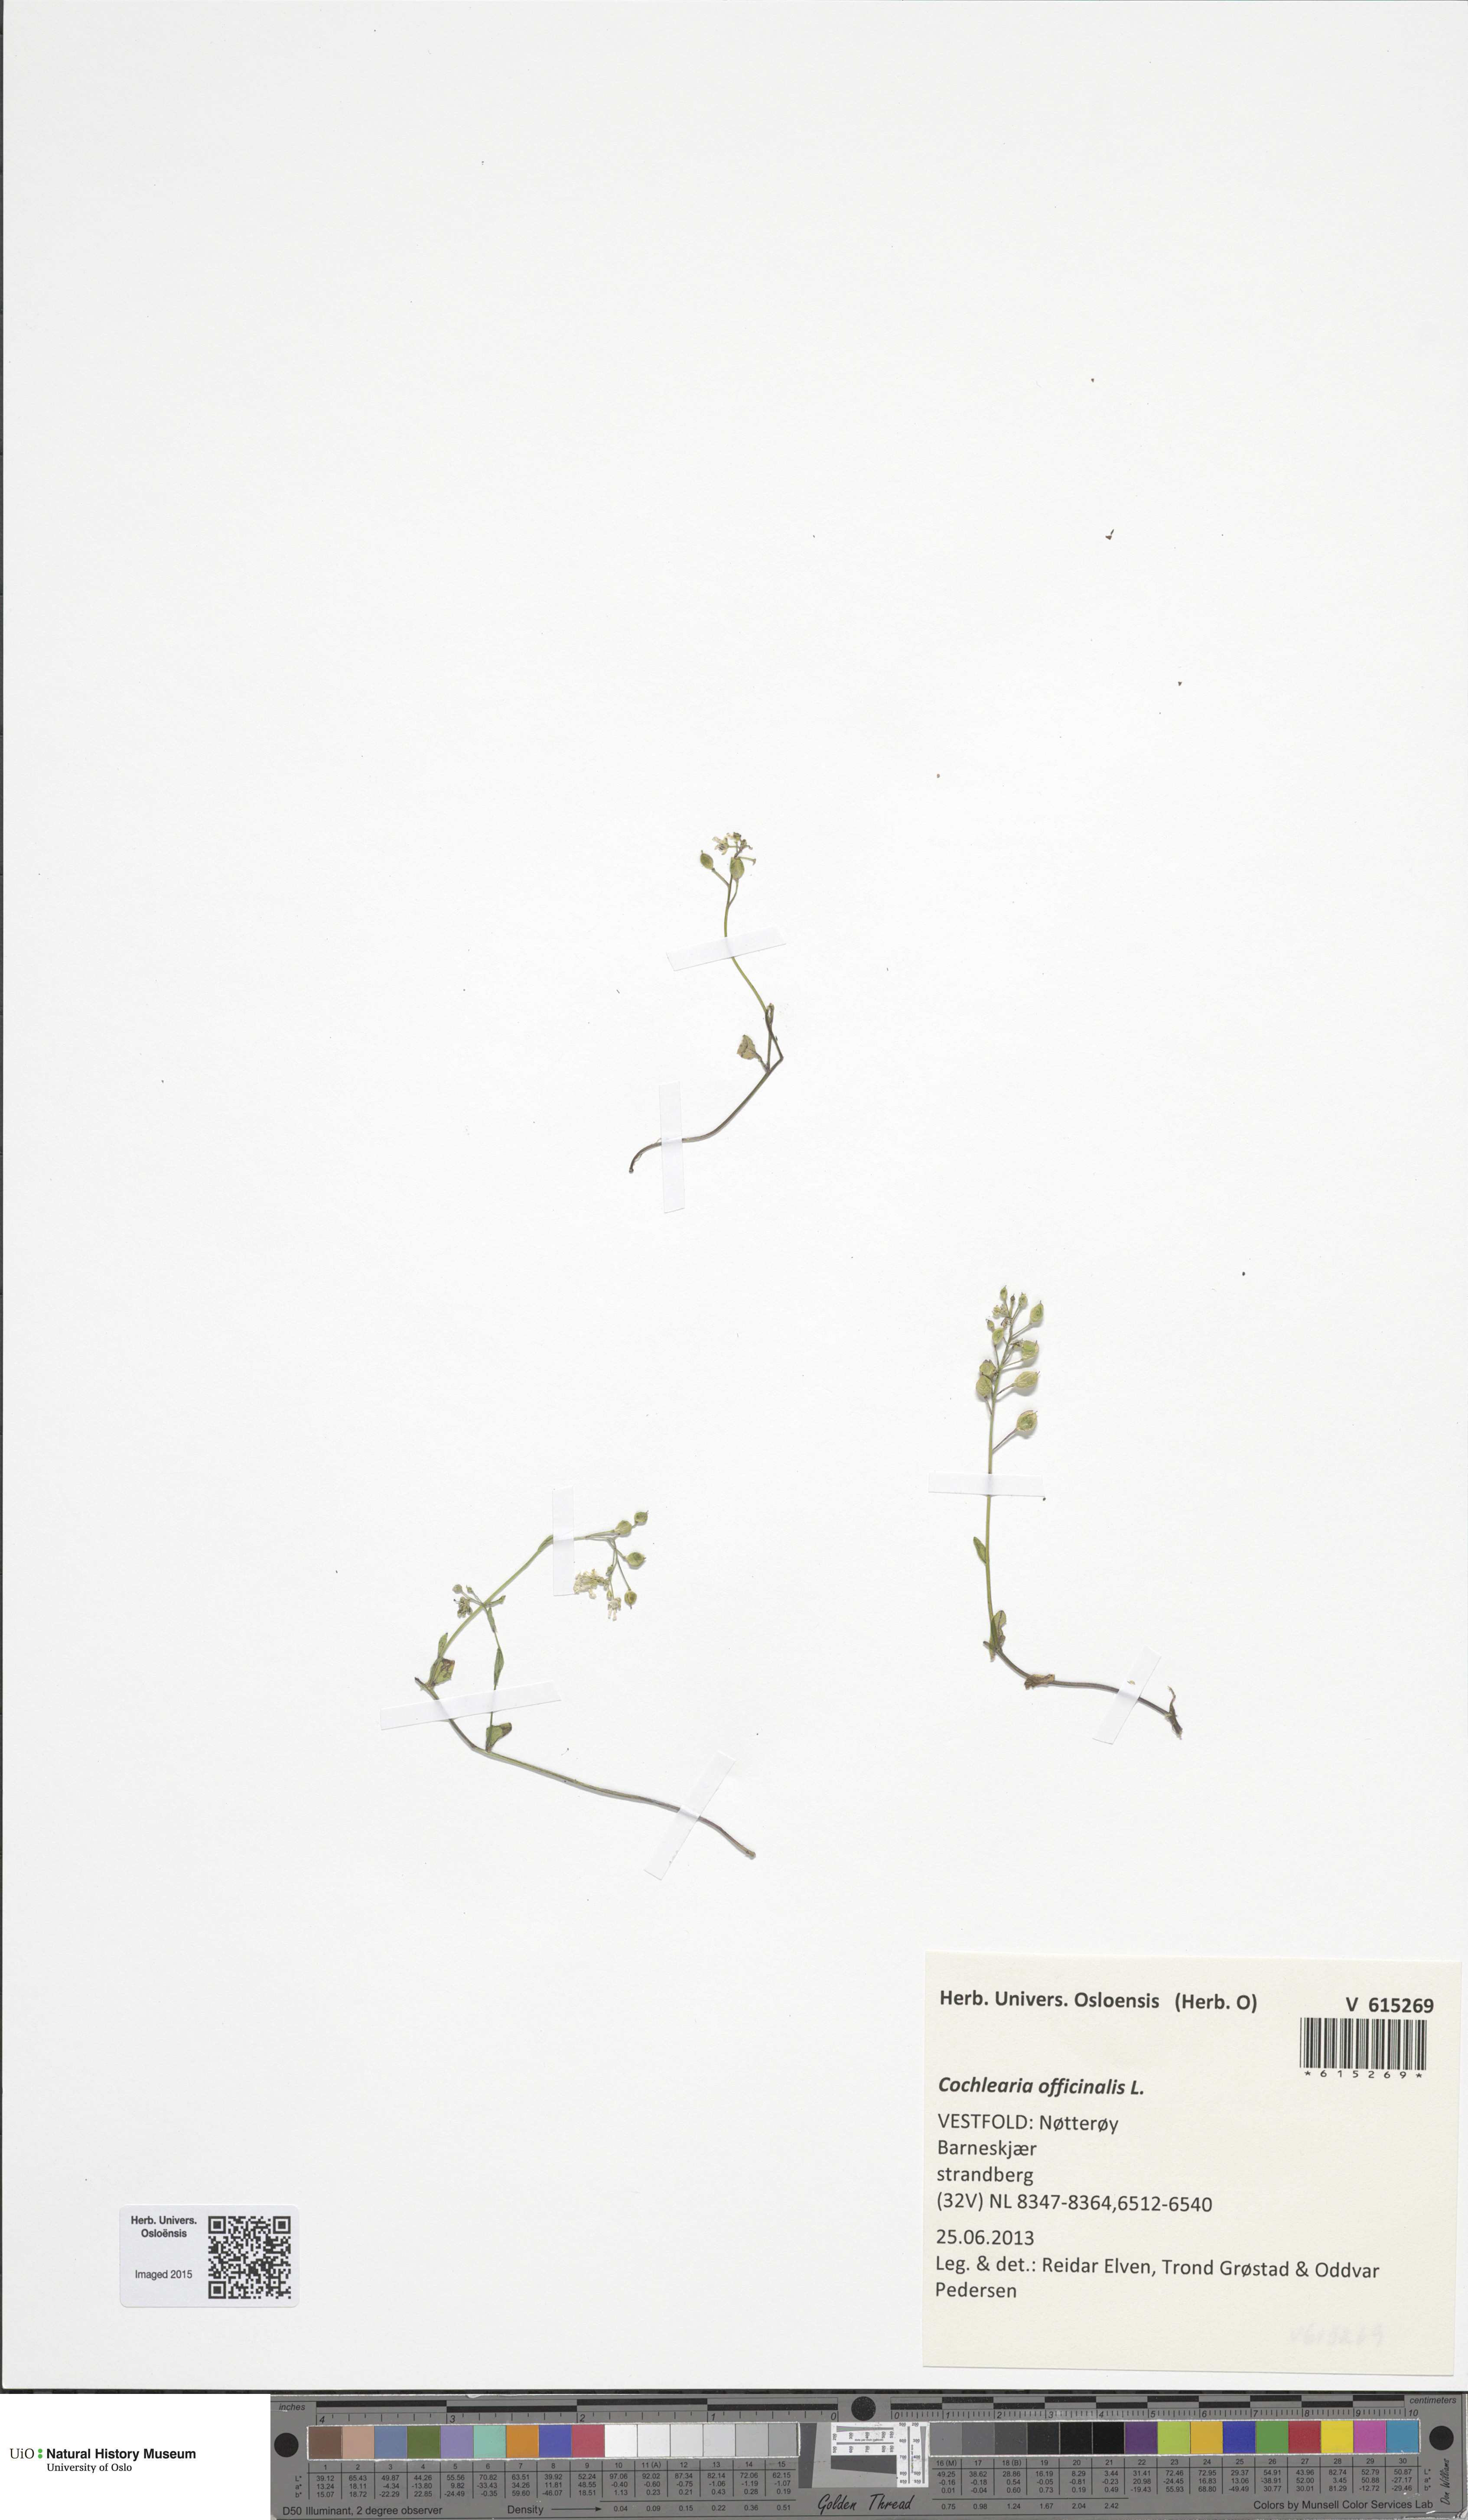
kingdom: Plantae
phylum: Tracheophyta
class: Magnoliopsida
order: Brassicales
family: Brassicaceae
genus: Cochlearia
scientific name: Cochlearia officinalis
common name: Scurvy-grass
